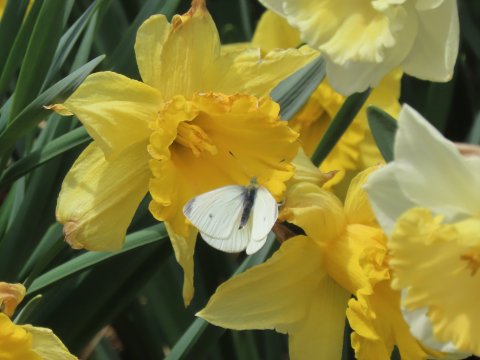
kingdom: Animalia
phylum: Arthropoda
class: Insecta
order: Lepidoptera
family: Pieridae
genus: Pieris
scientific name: Pieris rapae
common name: Cabbage White
